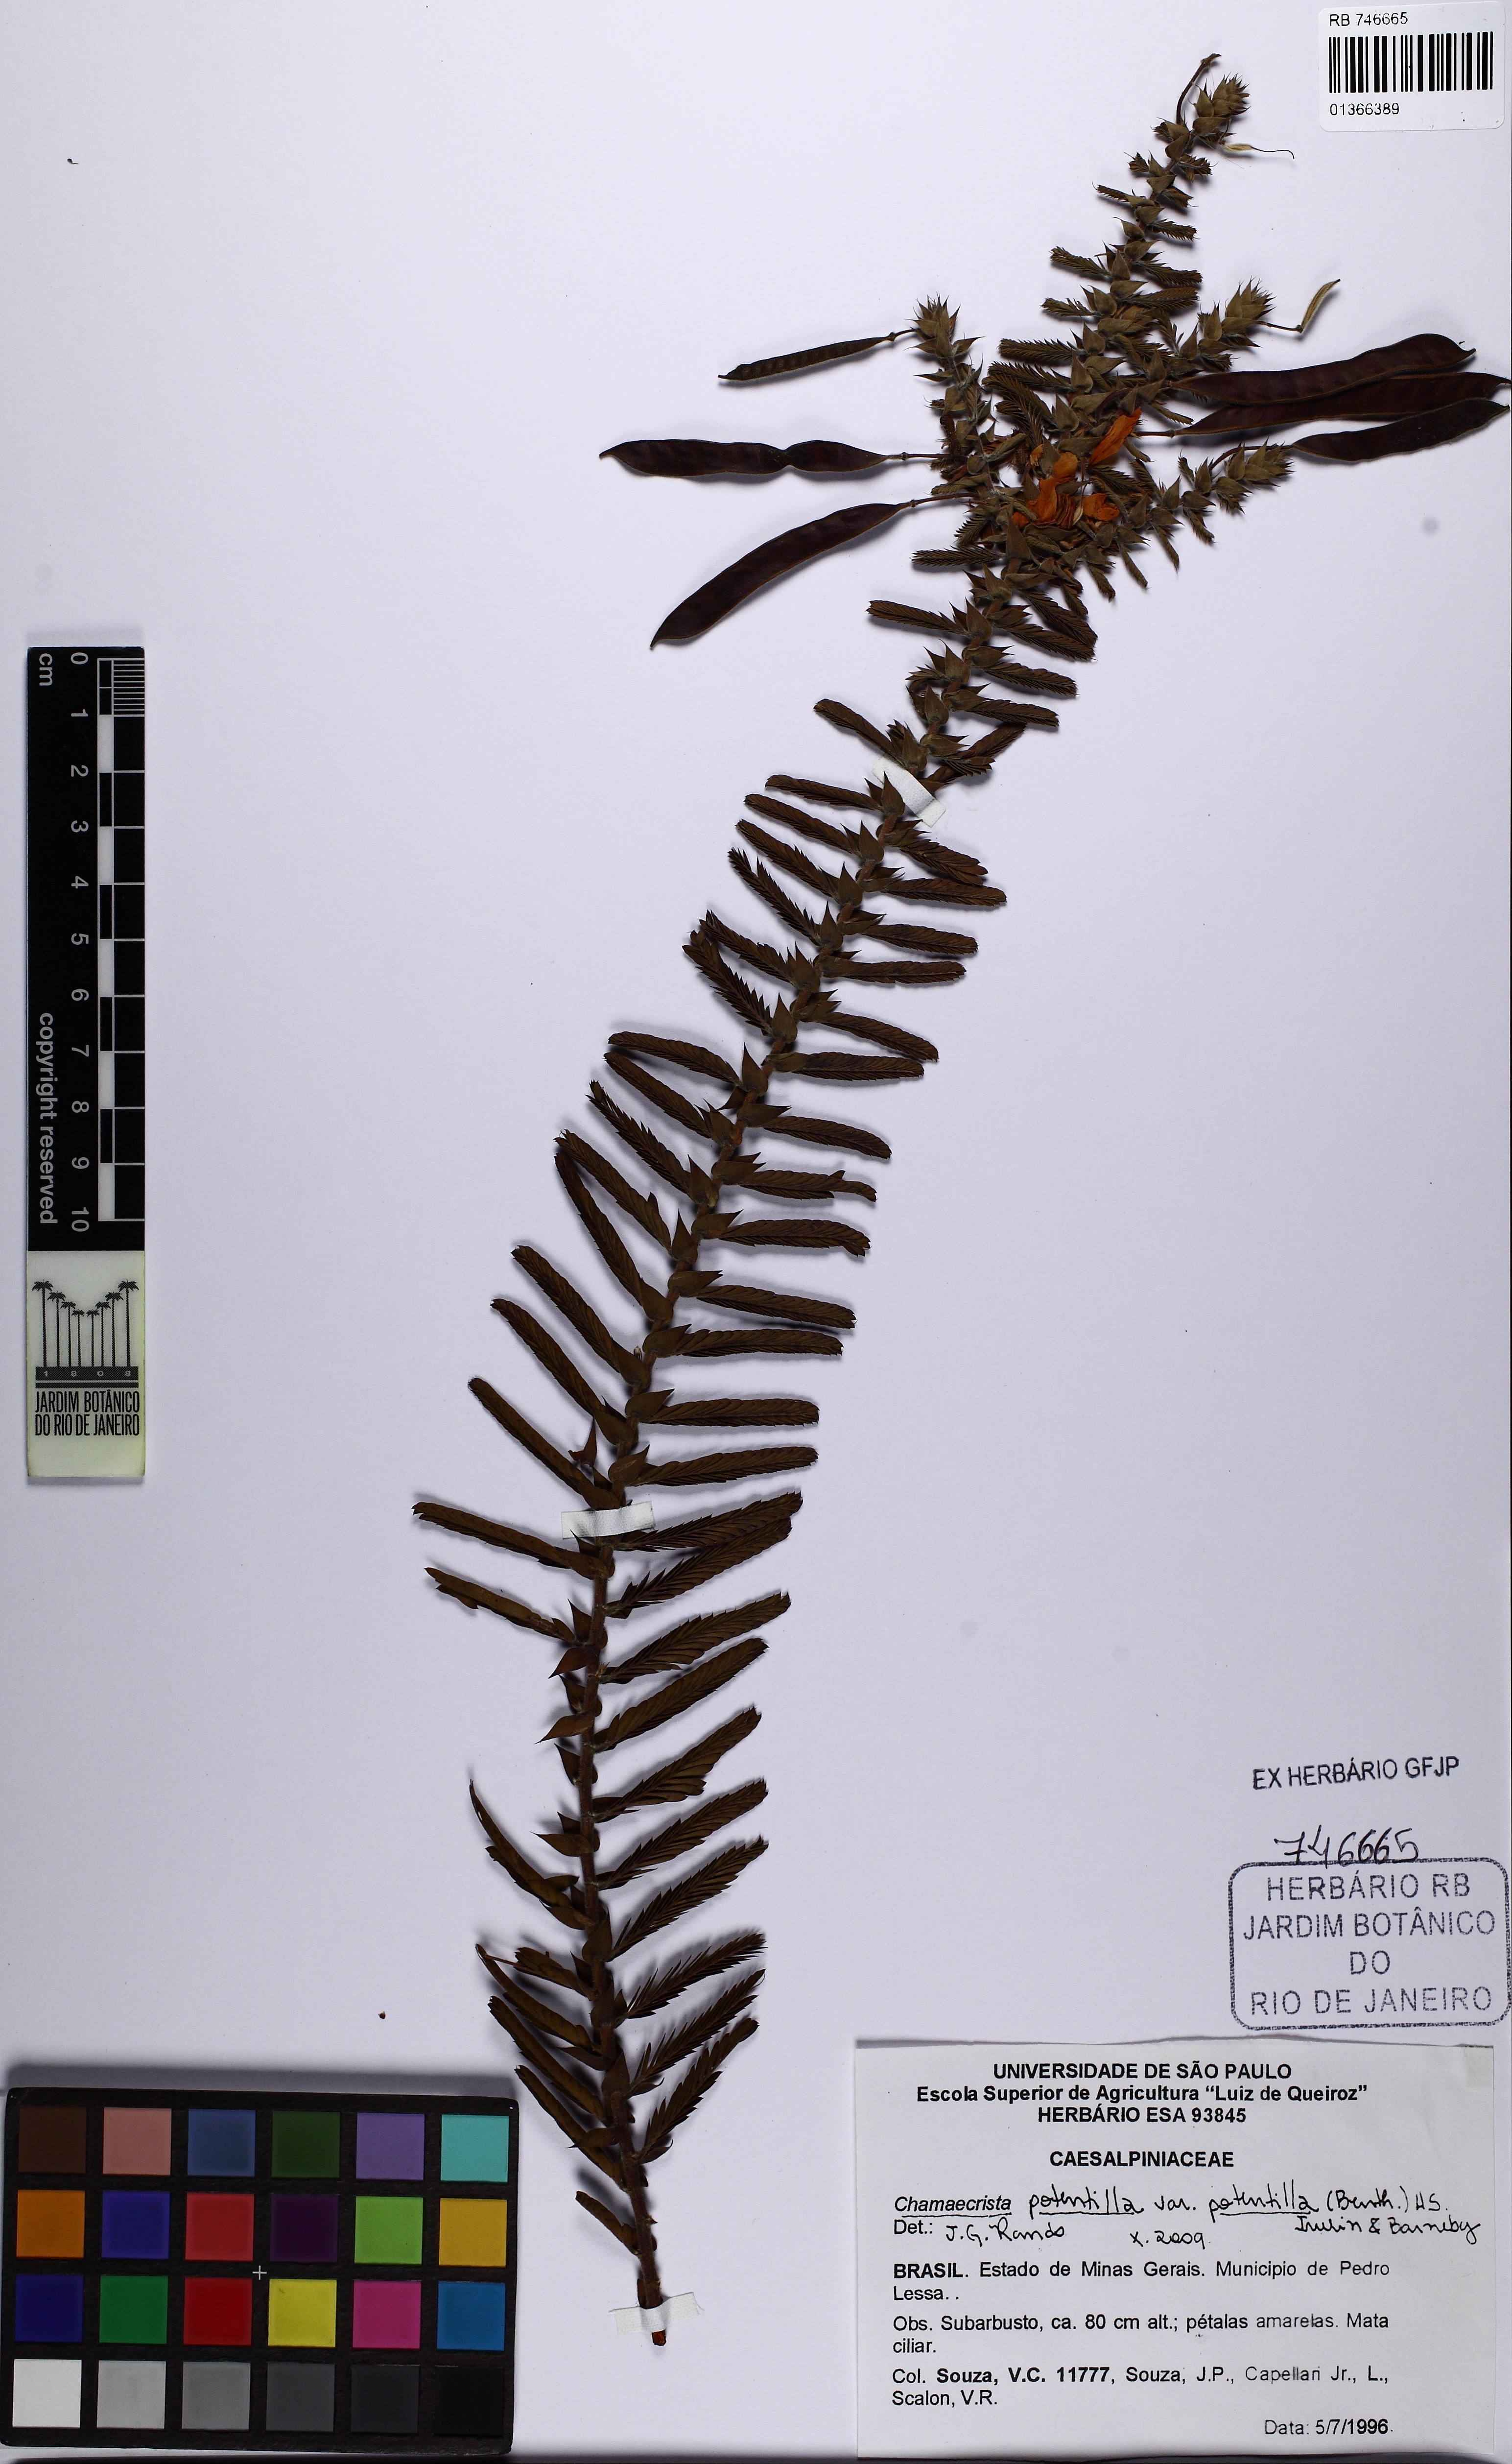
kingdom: Plantae
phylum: Tracheophyta
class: Magnoliopsida
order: Fabales
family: Fabaceae
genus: Chamaecrista
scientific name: Chamaecrista potentilla
